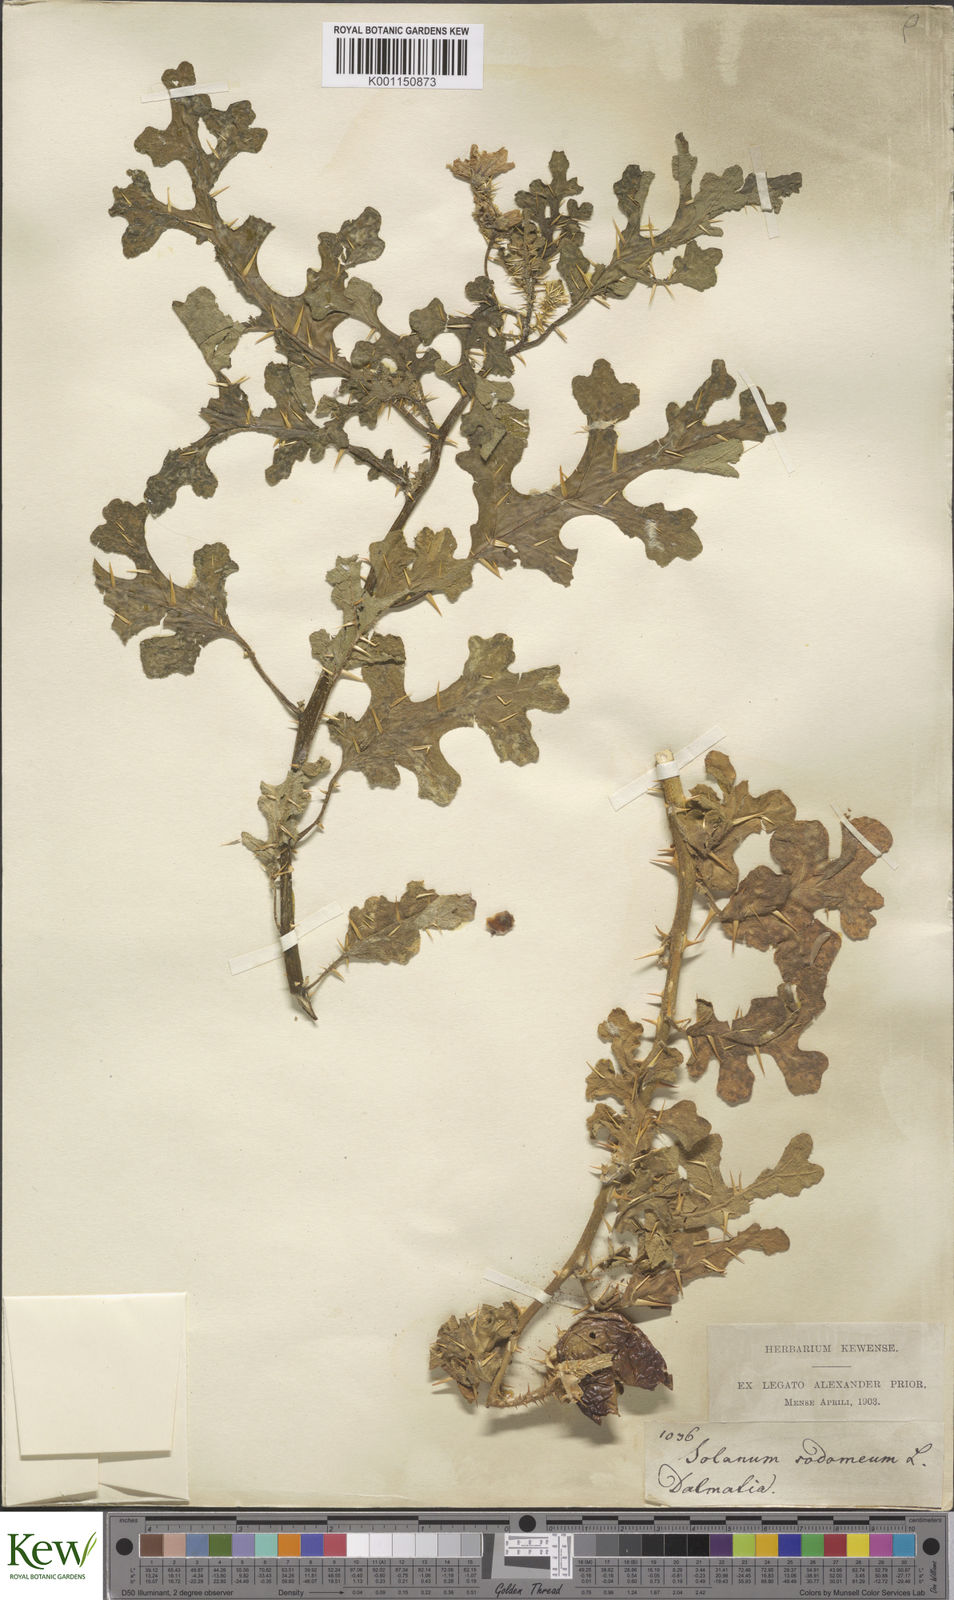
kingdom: Plantae
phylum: Tracheophyta
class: Magnoliopsida
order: Solanales
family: Solanaceae
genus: Solanum
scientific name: Solanum anguivi
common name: Forest bitterberry
